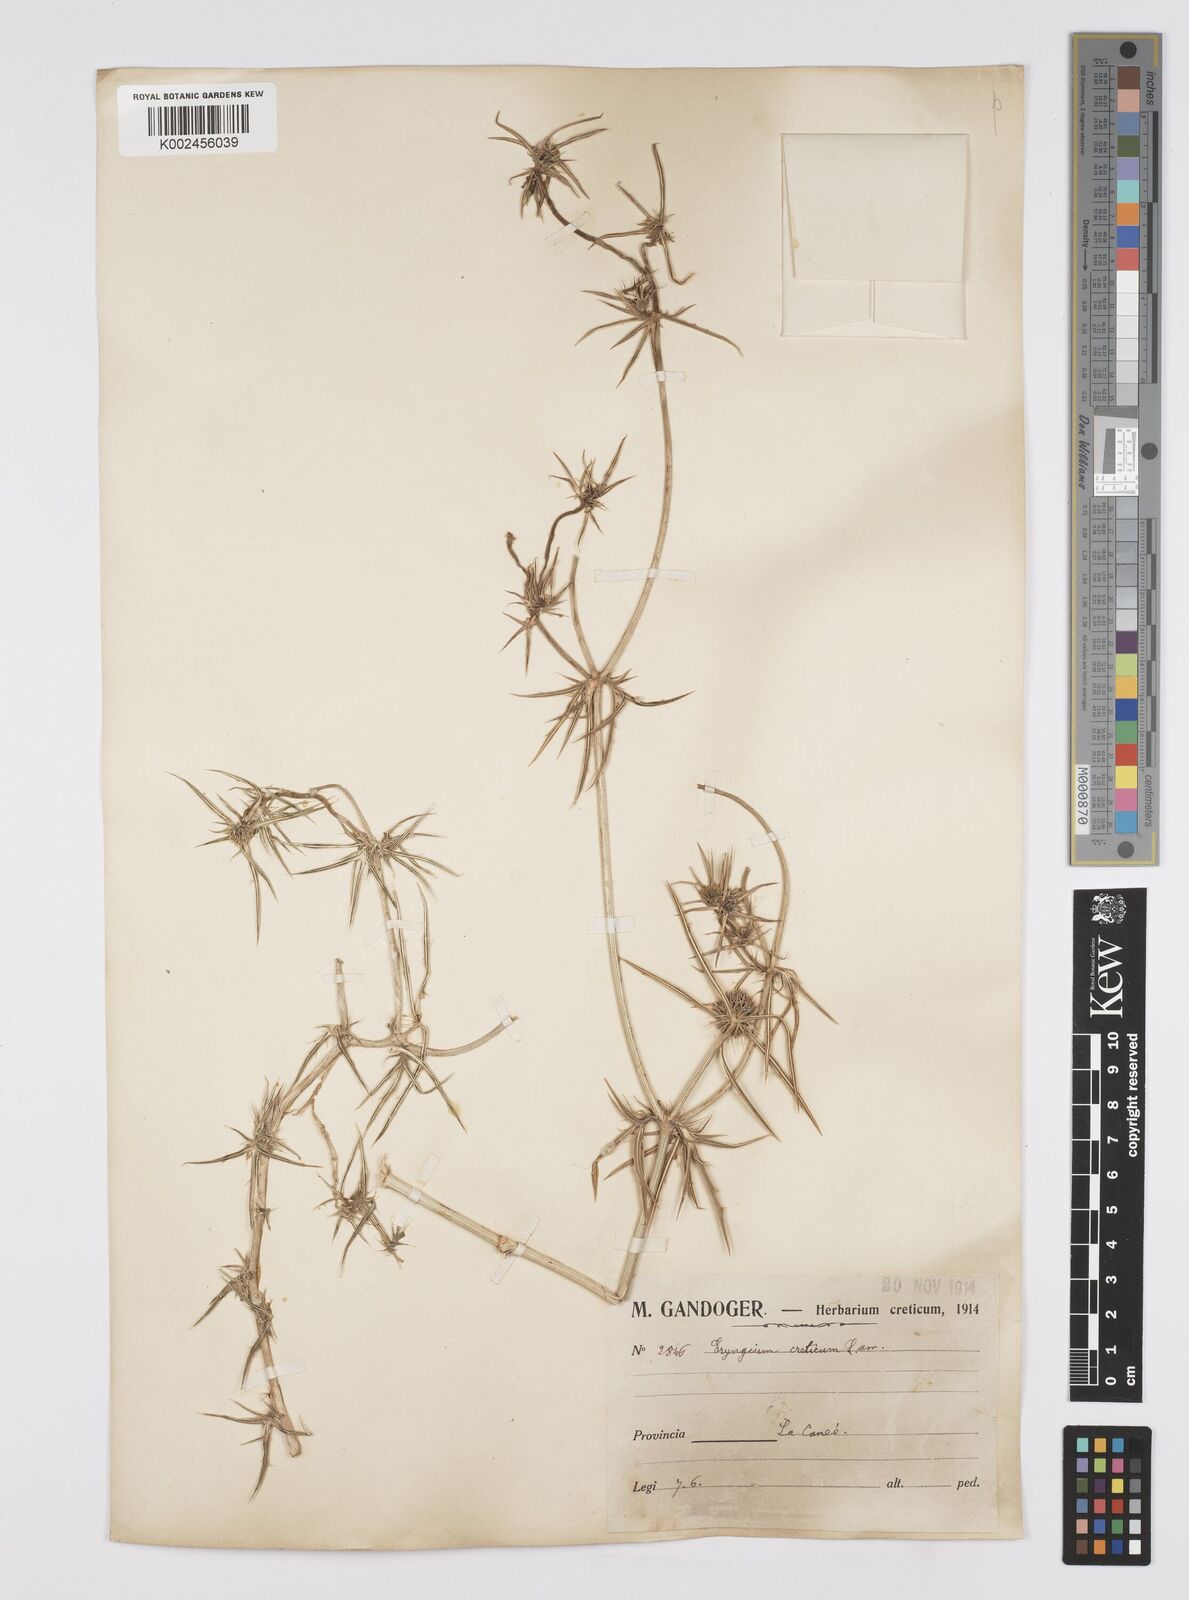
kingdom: Plantae
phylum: Tracheophyta
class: Magnoliopsida
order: Apiales
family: Apiaceae
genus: Eryngium
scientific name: Eryngium creticum
